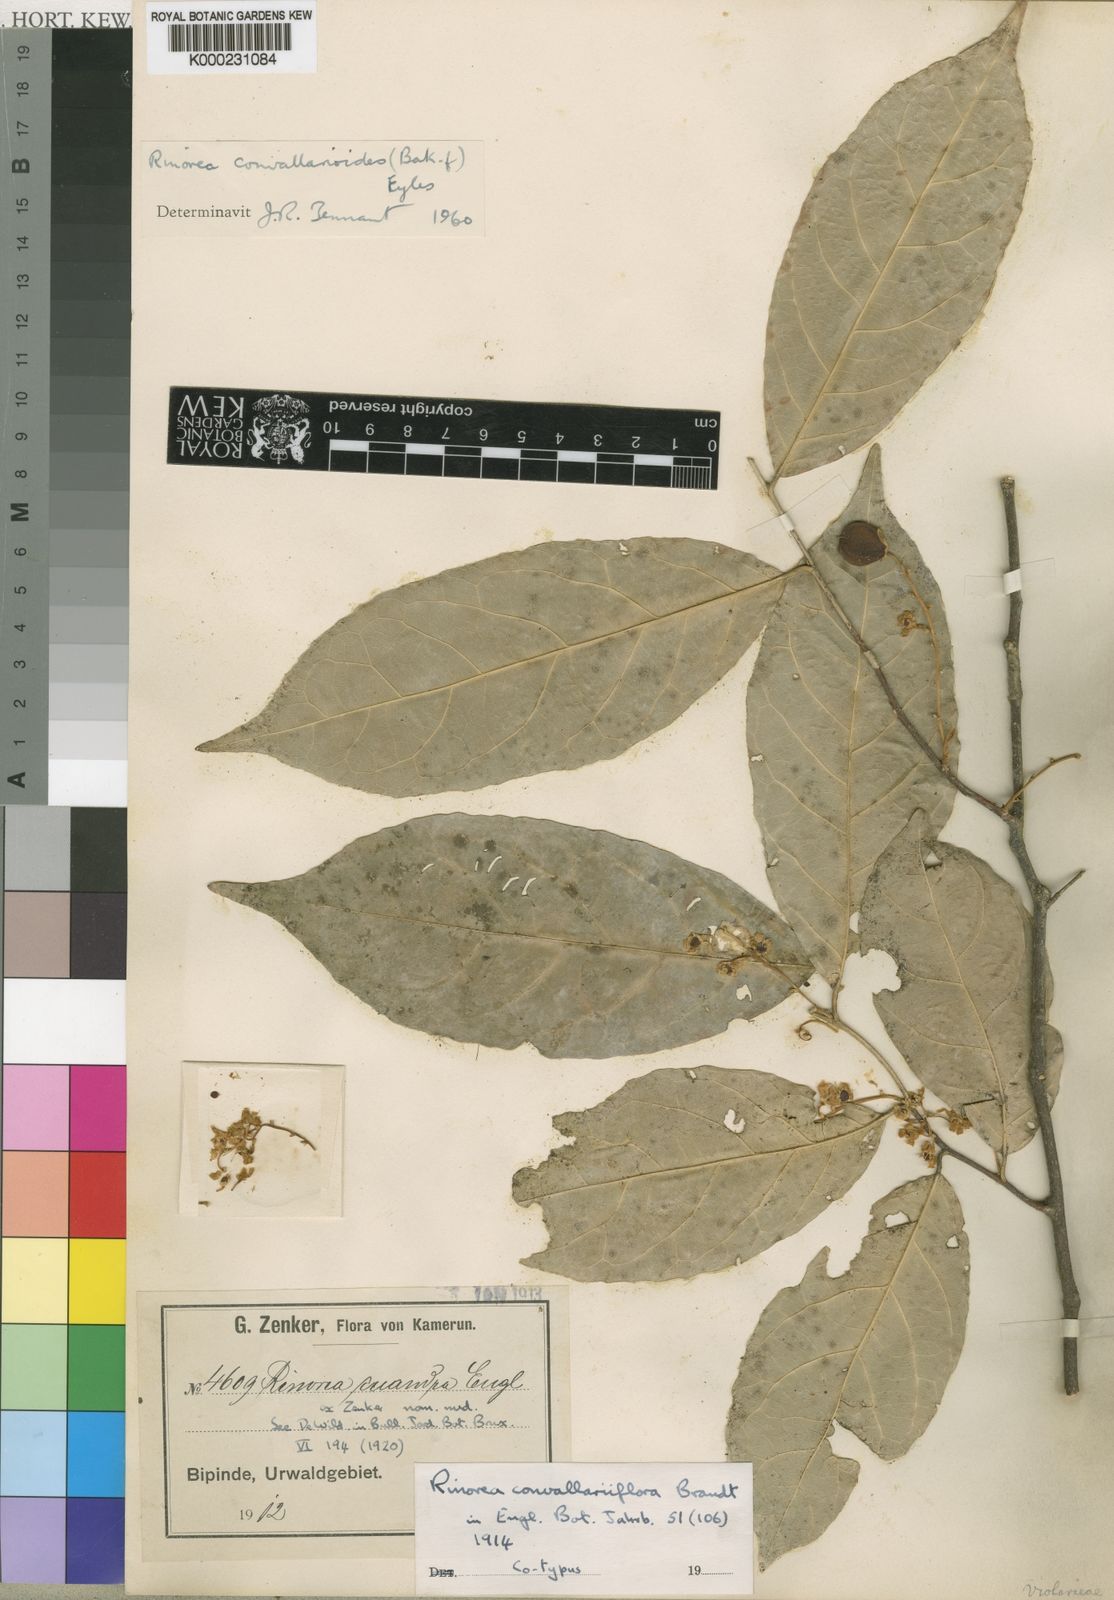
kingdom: Plantae
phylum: Tracheophyta
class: Magnoliopsida
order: Malpighiales
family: Violaceae
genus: Rinorea
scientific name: Rinorea convallarioides
